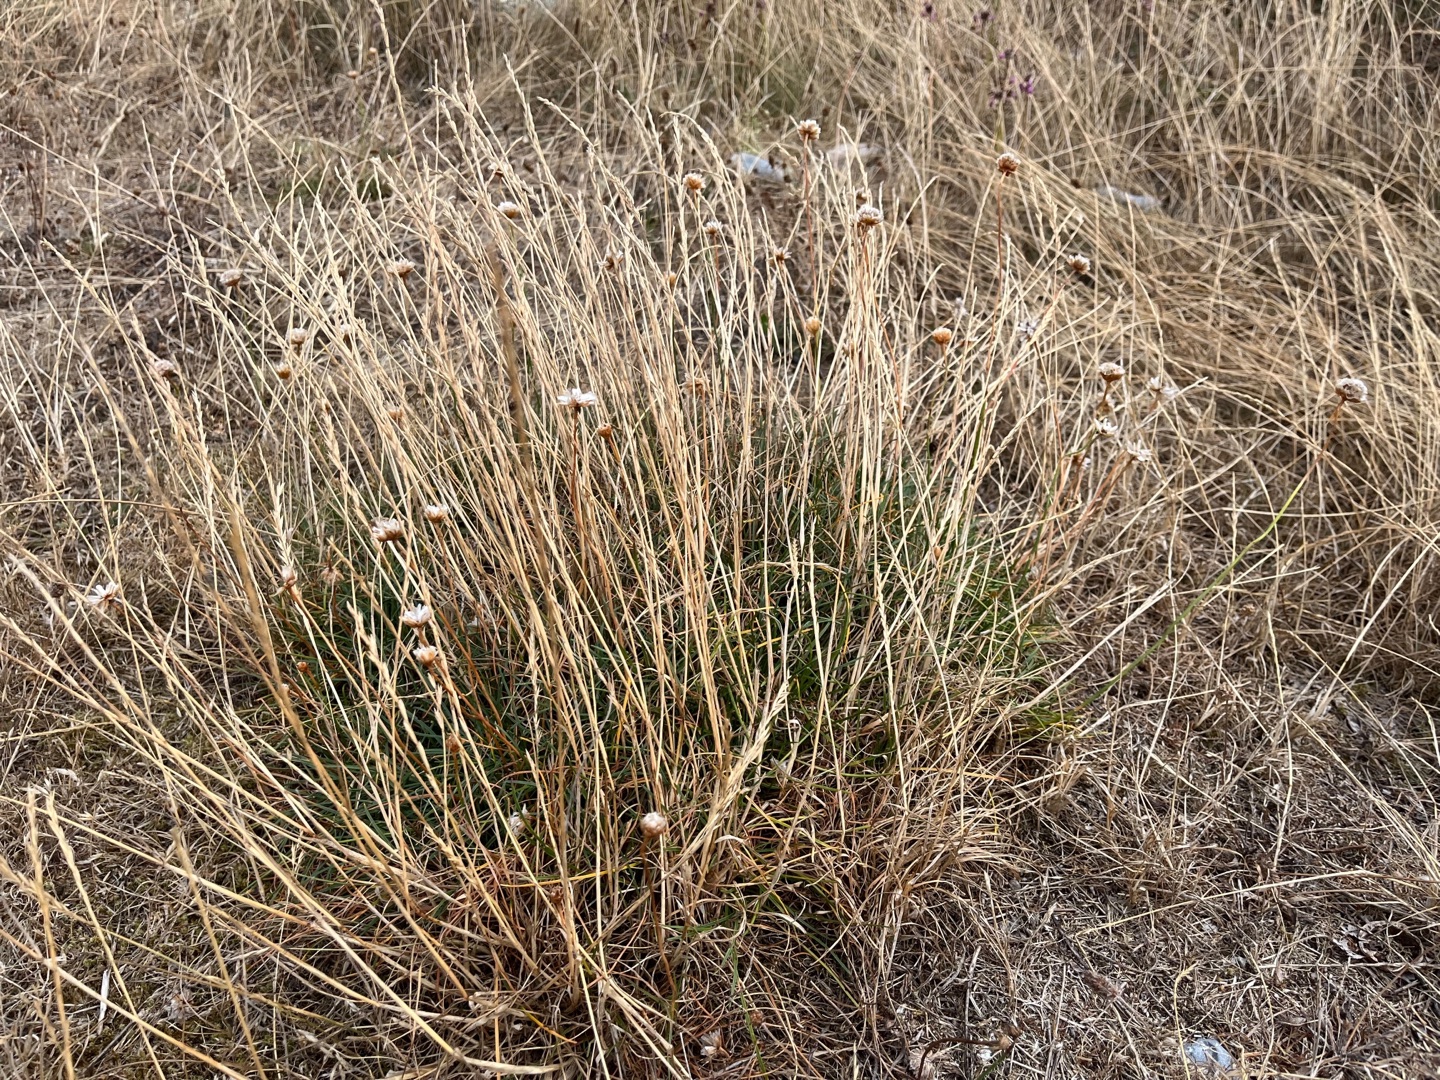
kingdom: Plantae
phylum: Tracheophyta
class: Magnoliopsida
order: Caryophyllales
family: Plumbaginaceae
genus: Armeria
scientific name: Armeria maritima
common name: Engelskgræs
